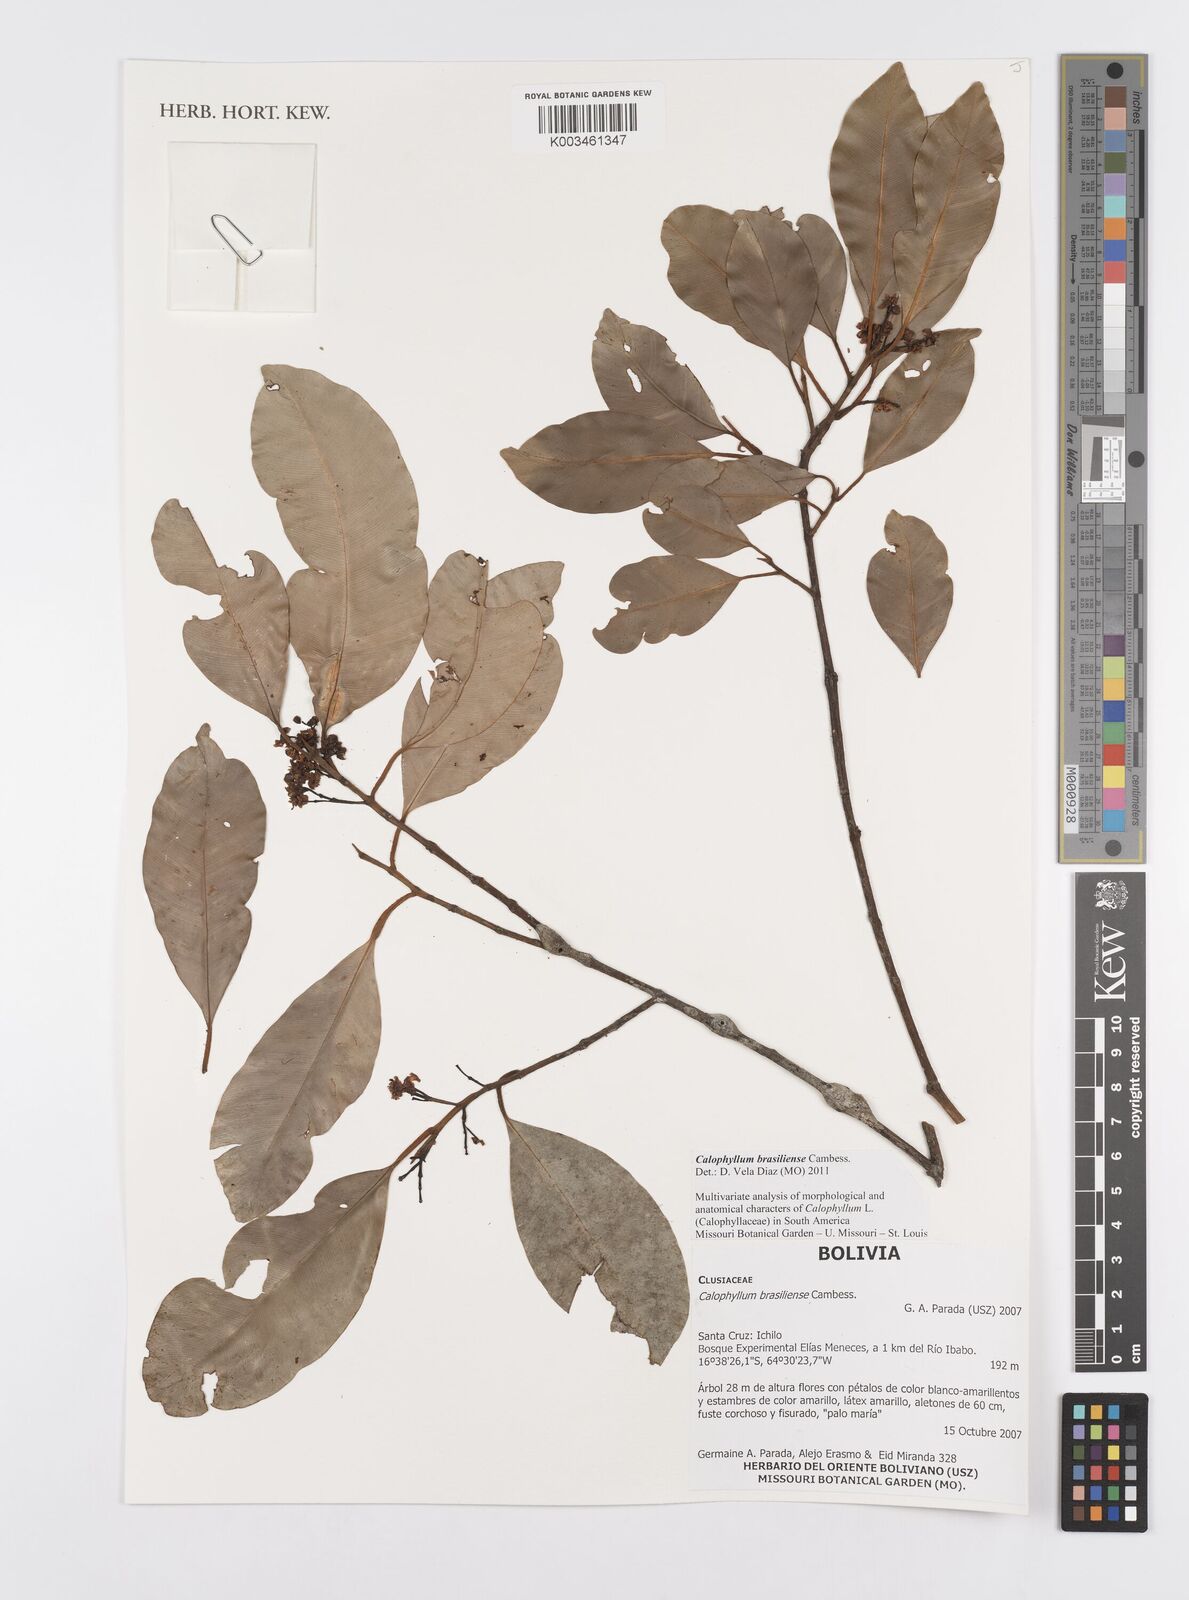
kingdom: Plantae
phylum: Tracheophyta
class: Magnoliopsida
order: Malpighiales
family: Calophyllaceae
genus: Calophyllum
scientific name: Calophyllum brasiliense
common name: Santa maria
